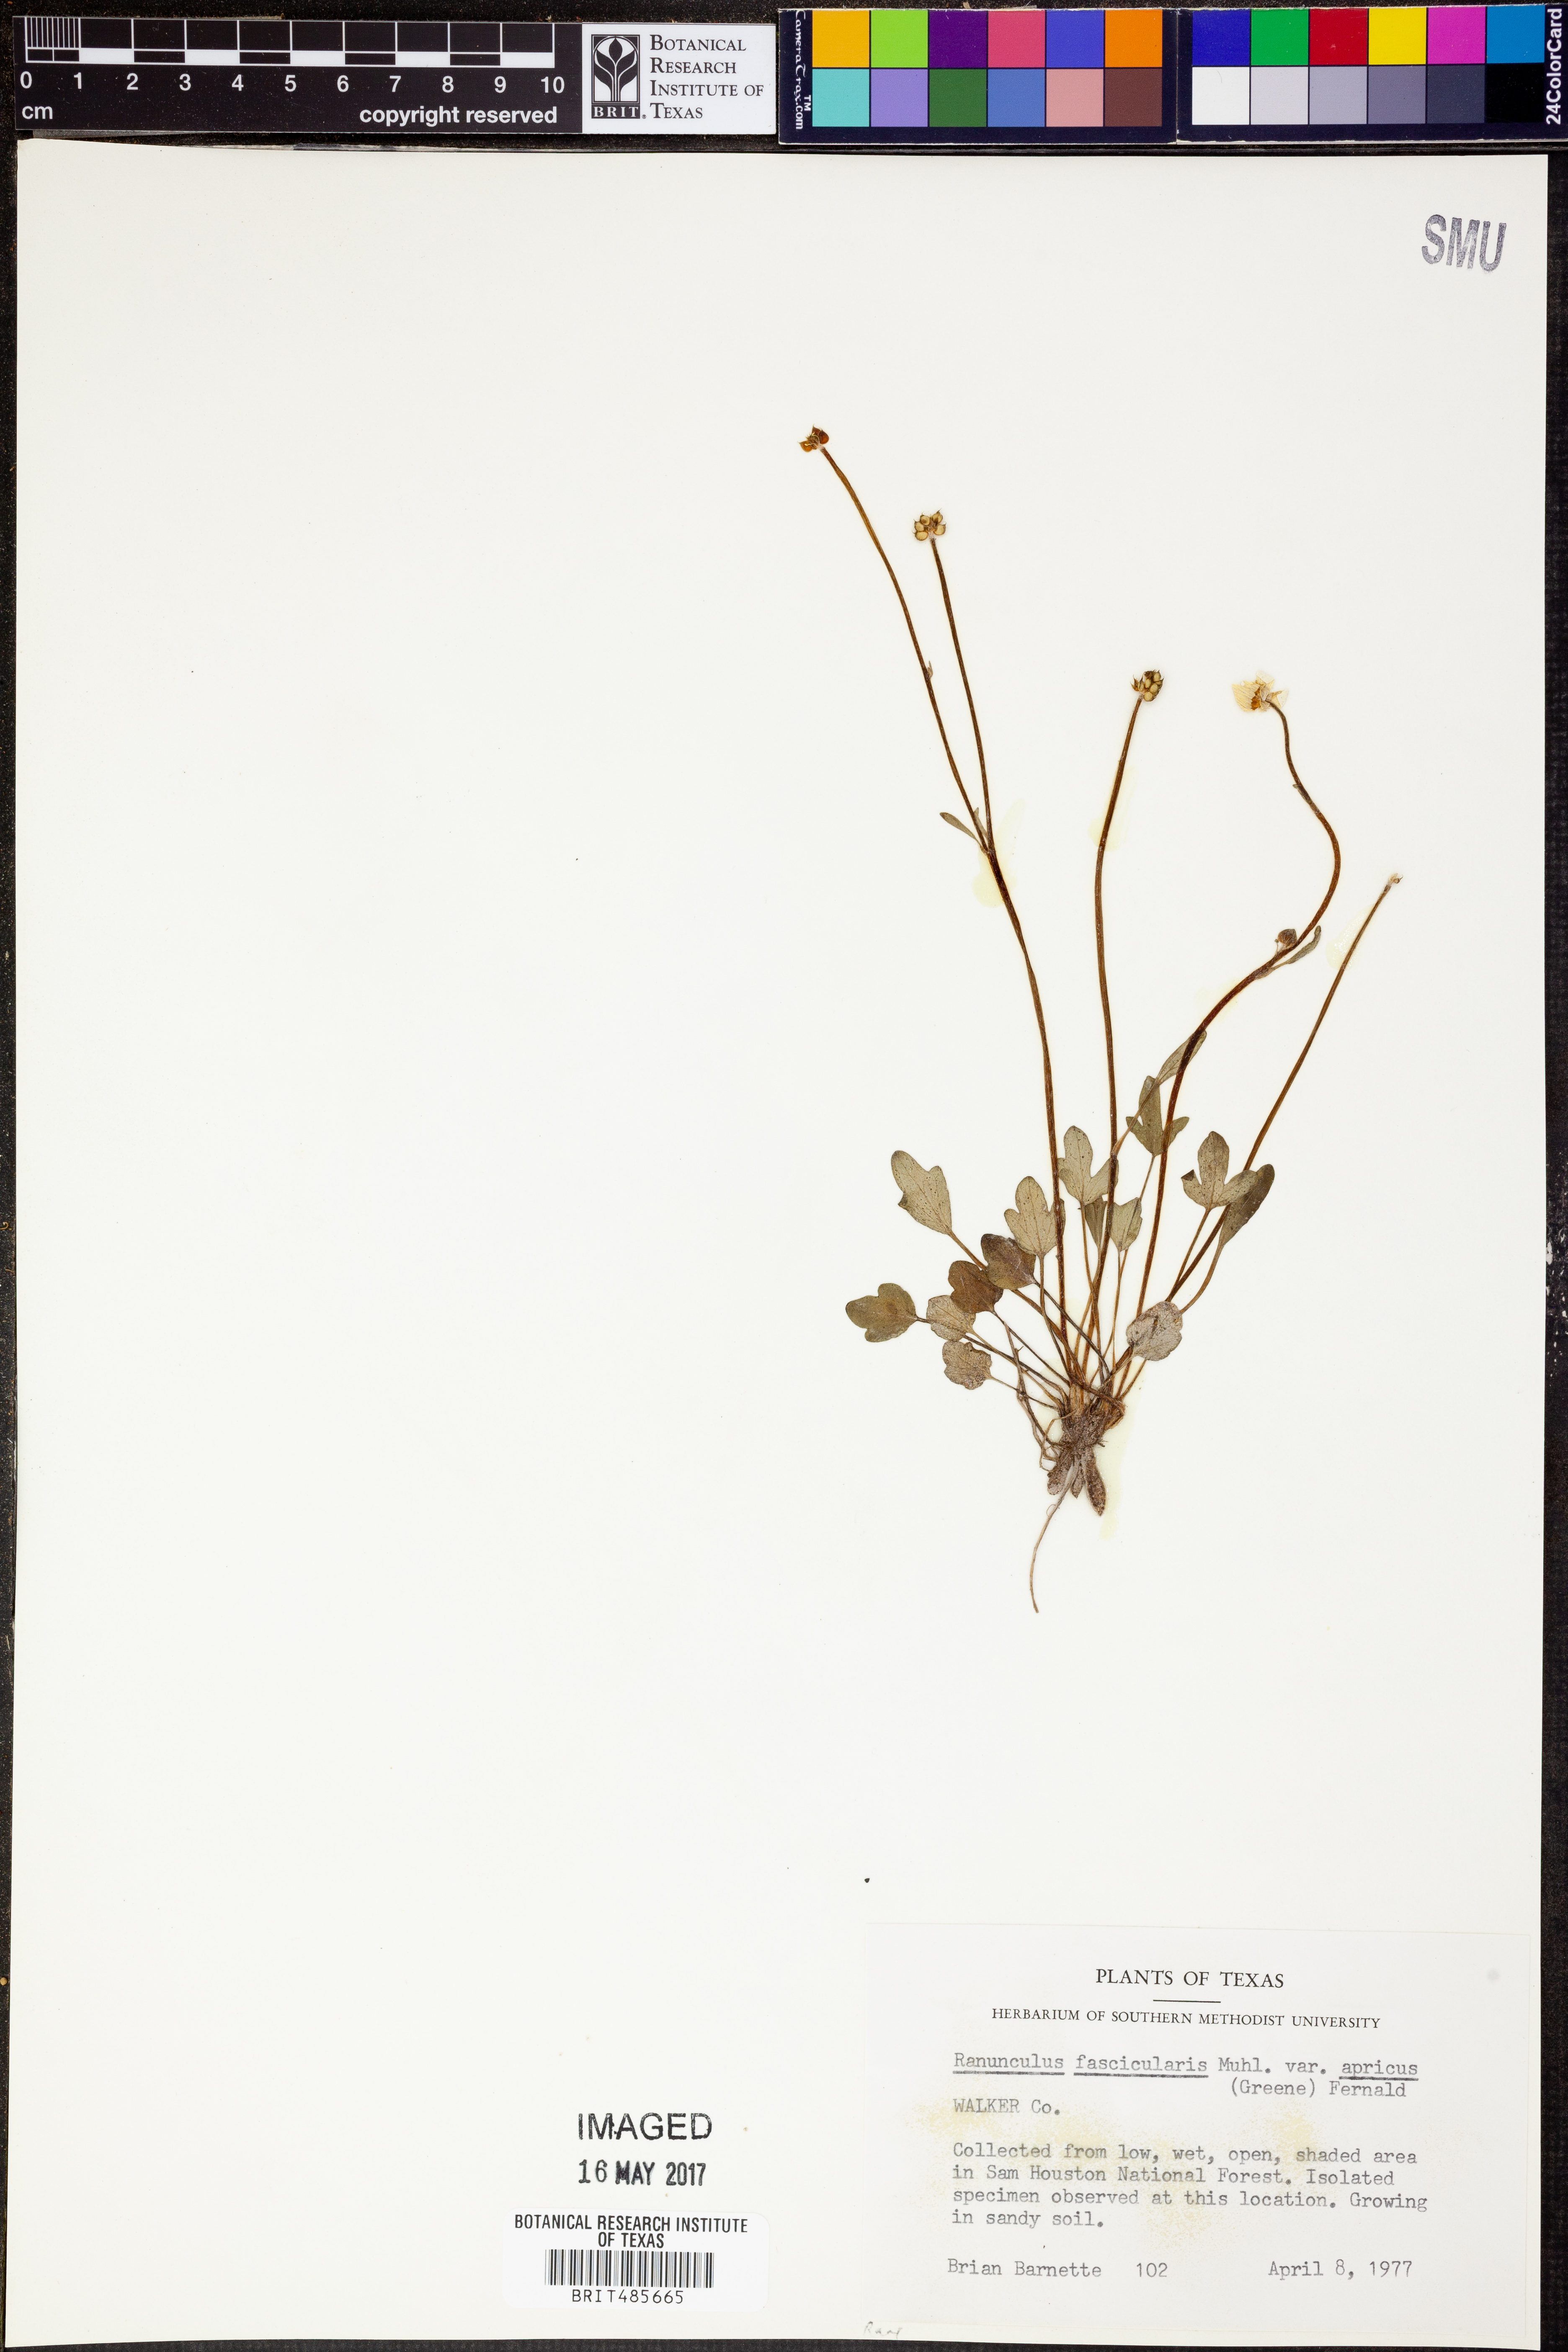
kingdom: Plantae
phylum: Tracheophyta
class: Magnoliopsida
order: Ranunculales
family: Ranunculaceae
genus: Ranunculus
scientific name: Ranunculus fascicularis
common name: Early buttercup
